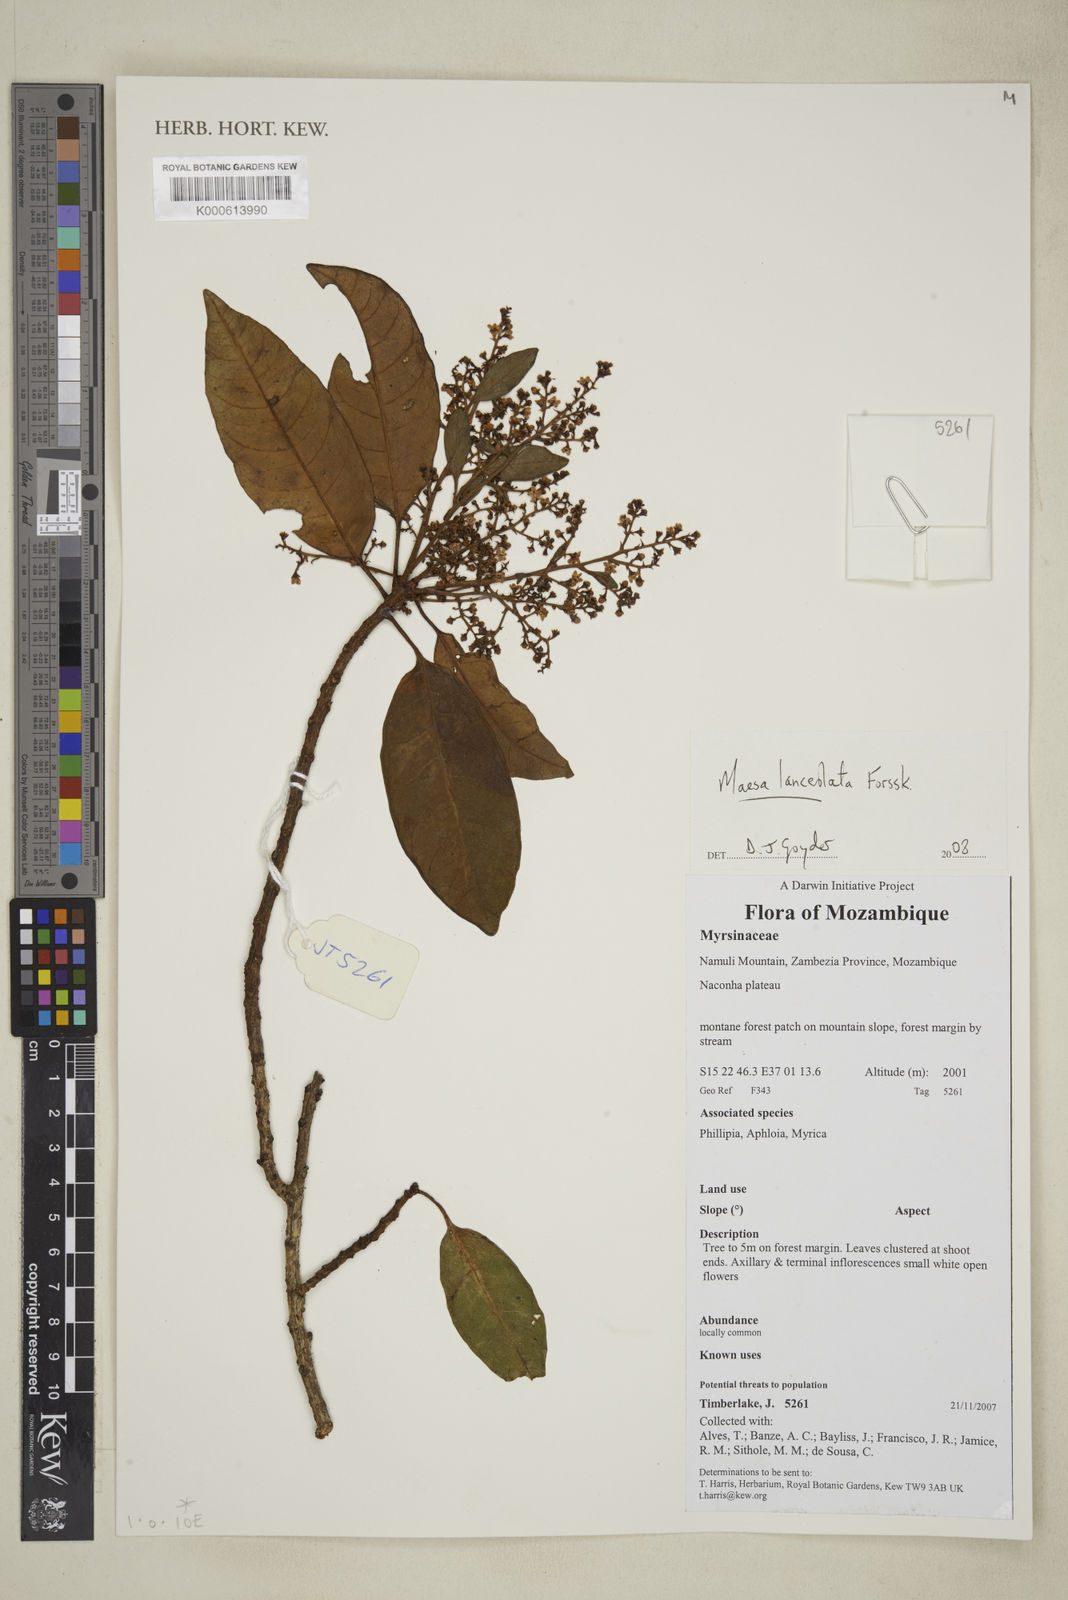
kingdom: Plantae
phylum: Tracheophyta
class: Magnoliopsida
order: Ericales
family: Primulaceae
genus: Maesa
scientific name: Maesa lanceolata
